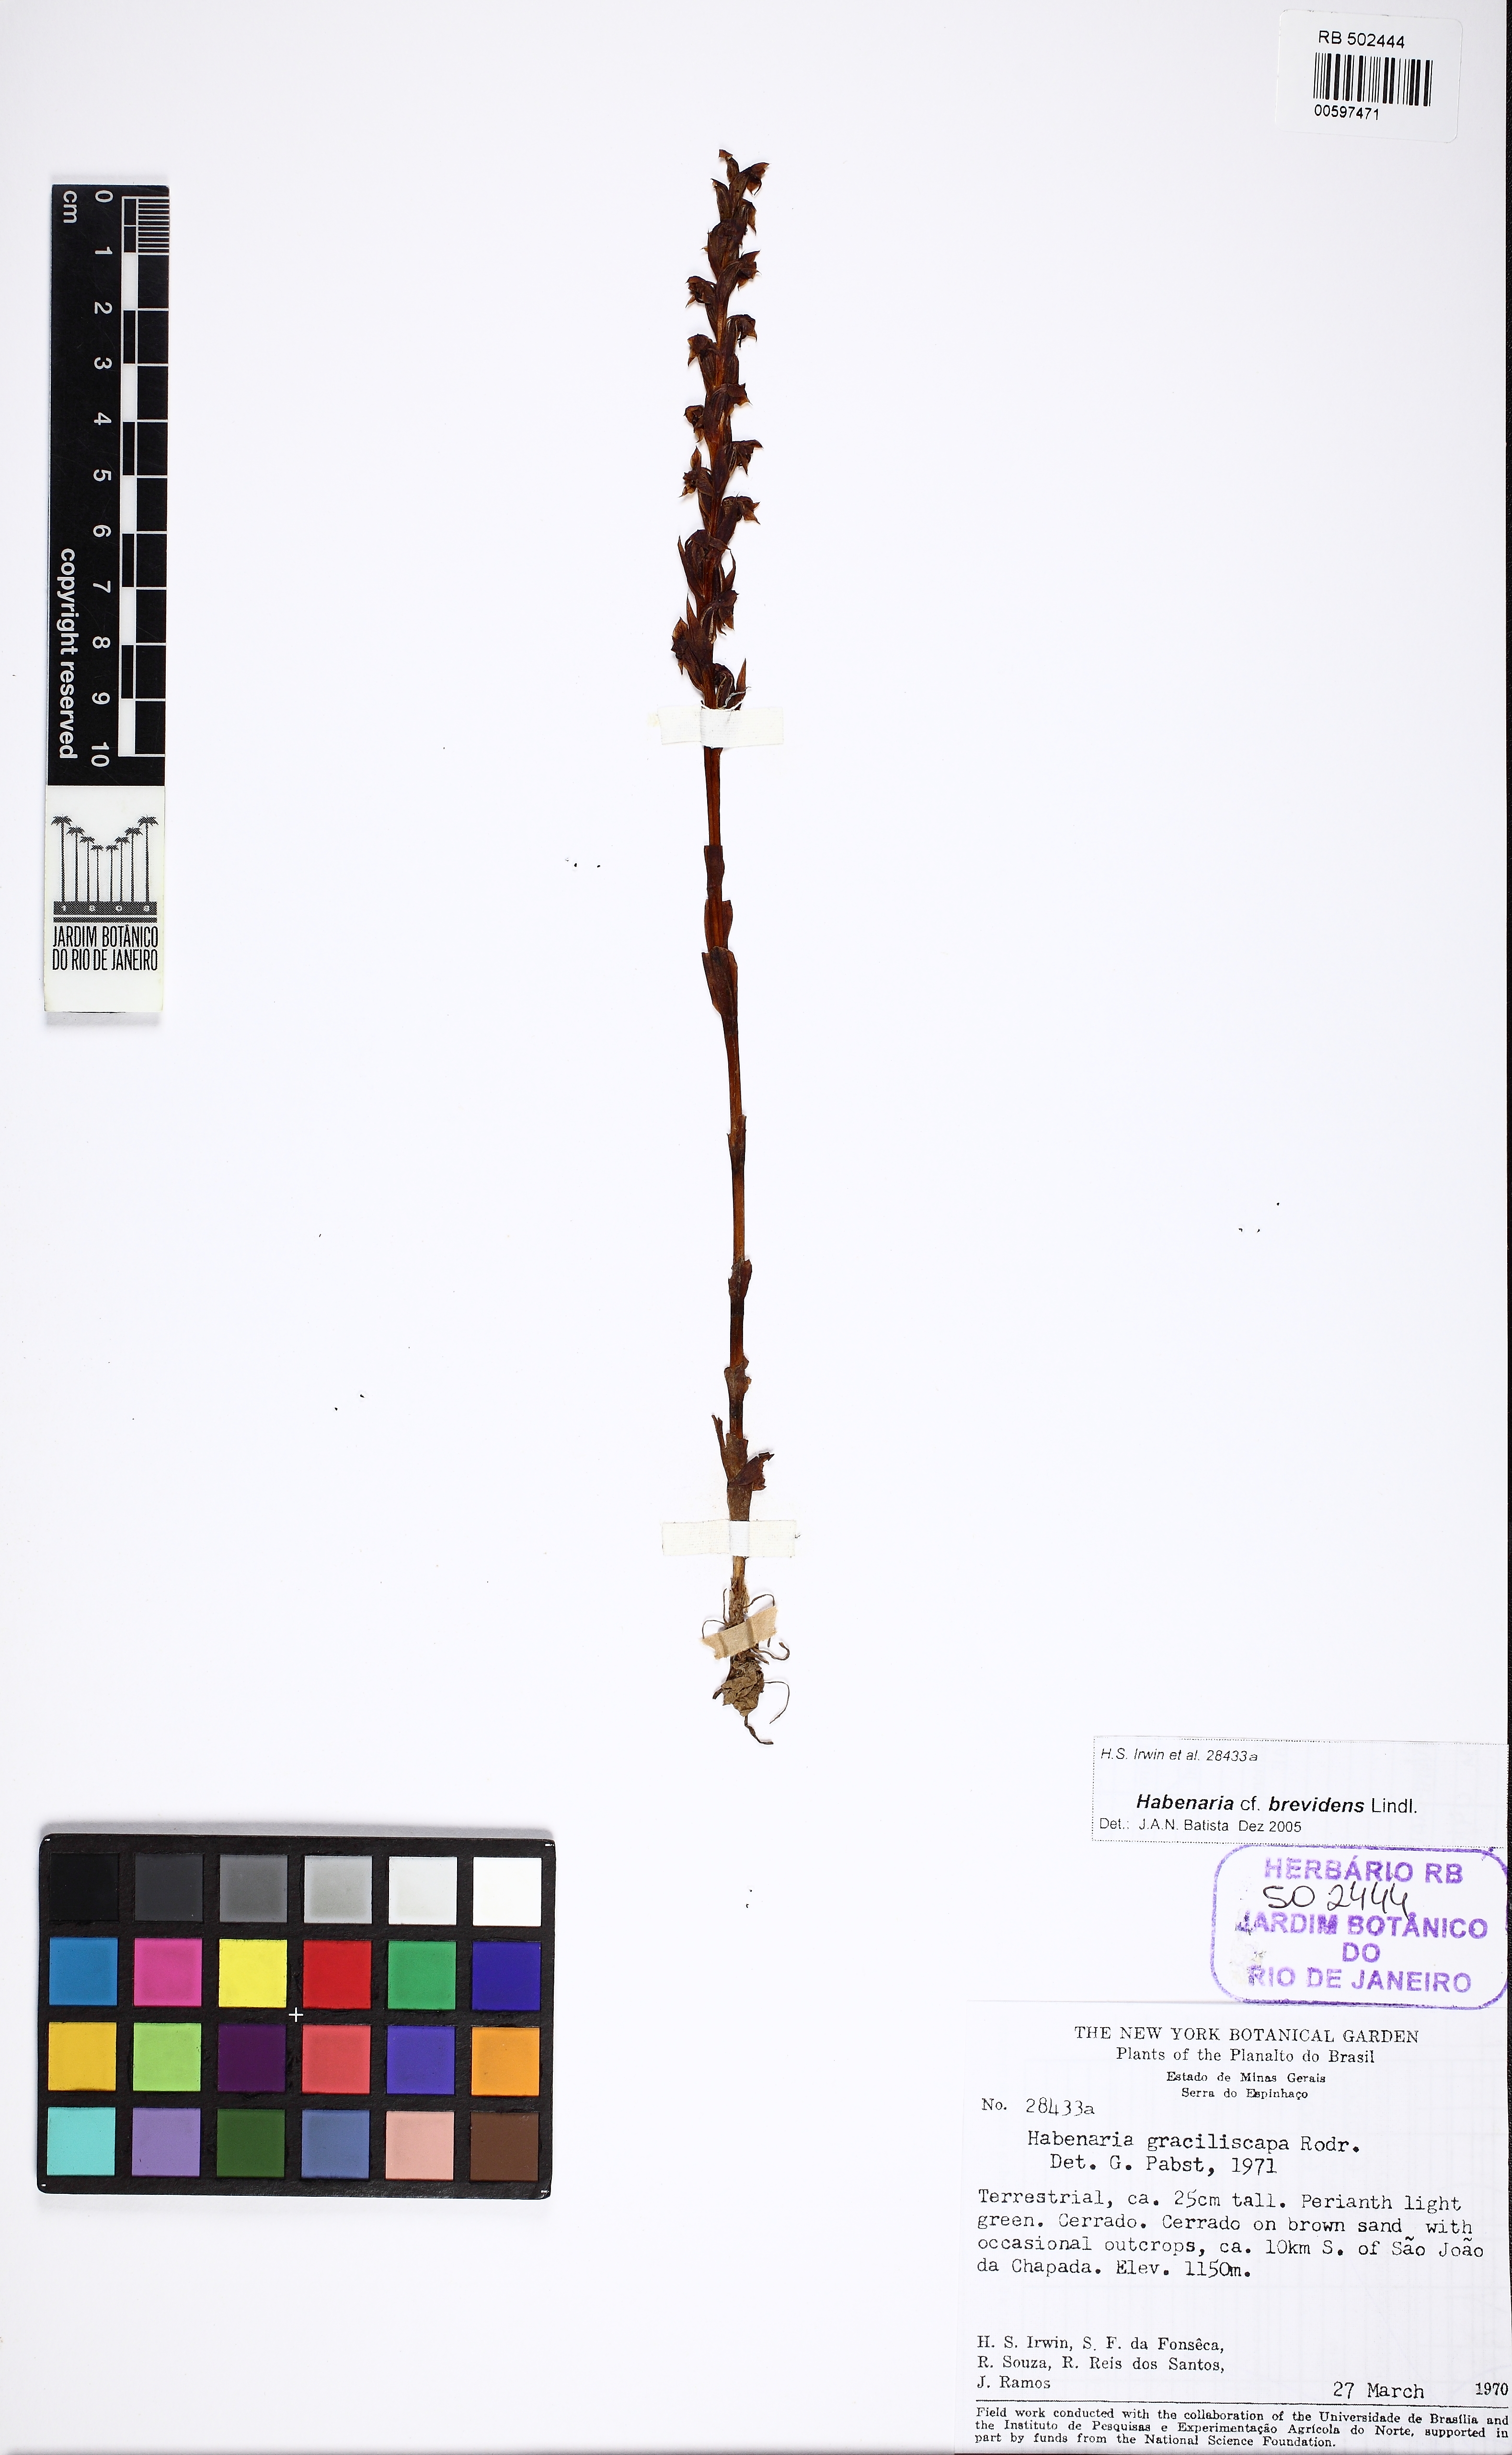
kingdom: Plantae
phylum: Tracheophyta
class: Liliopsida
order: Asparagales
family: Orchidaceae
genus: Habenaria
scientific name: Habenaria brevidens
